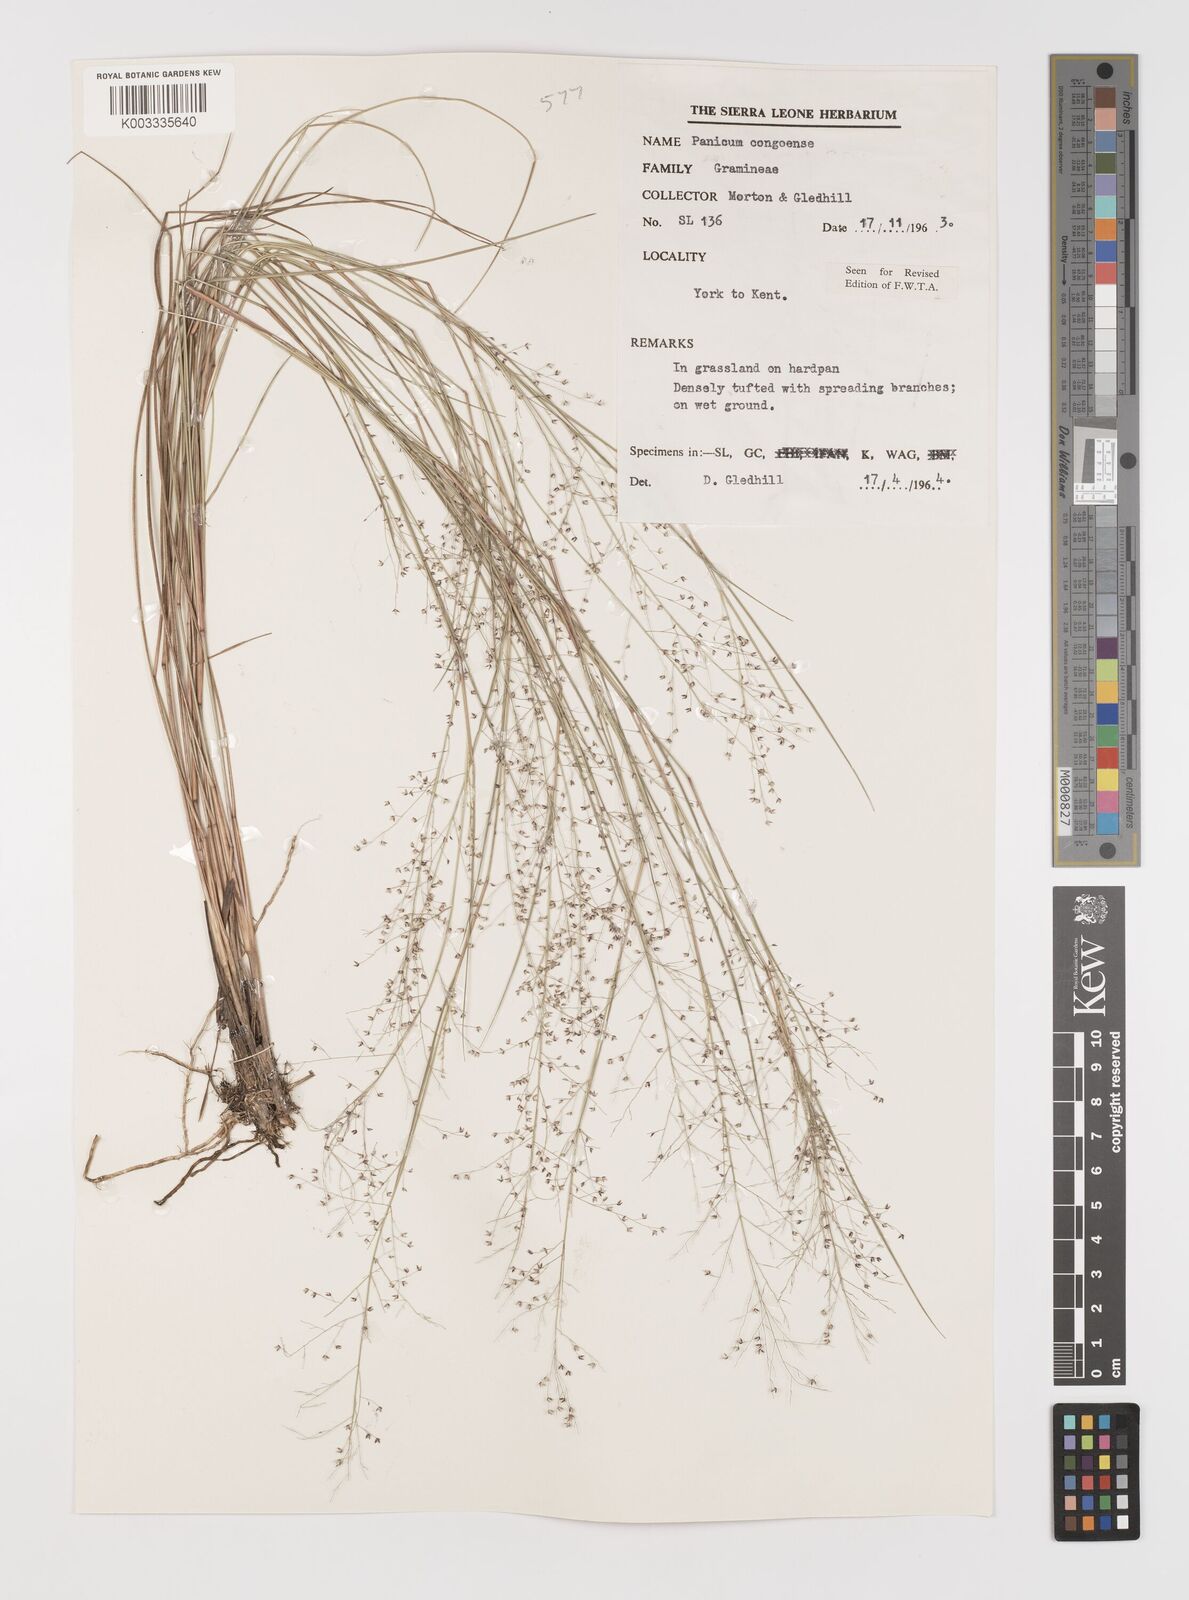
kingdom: Plantae
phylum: Tracheophyta
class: Liliopsida
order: Poales
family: Poaceae
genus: Panicum
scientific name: Panicum congoense
